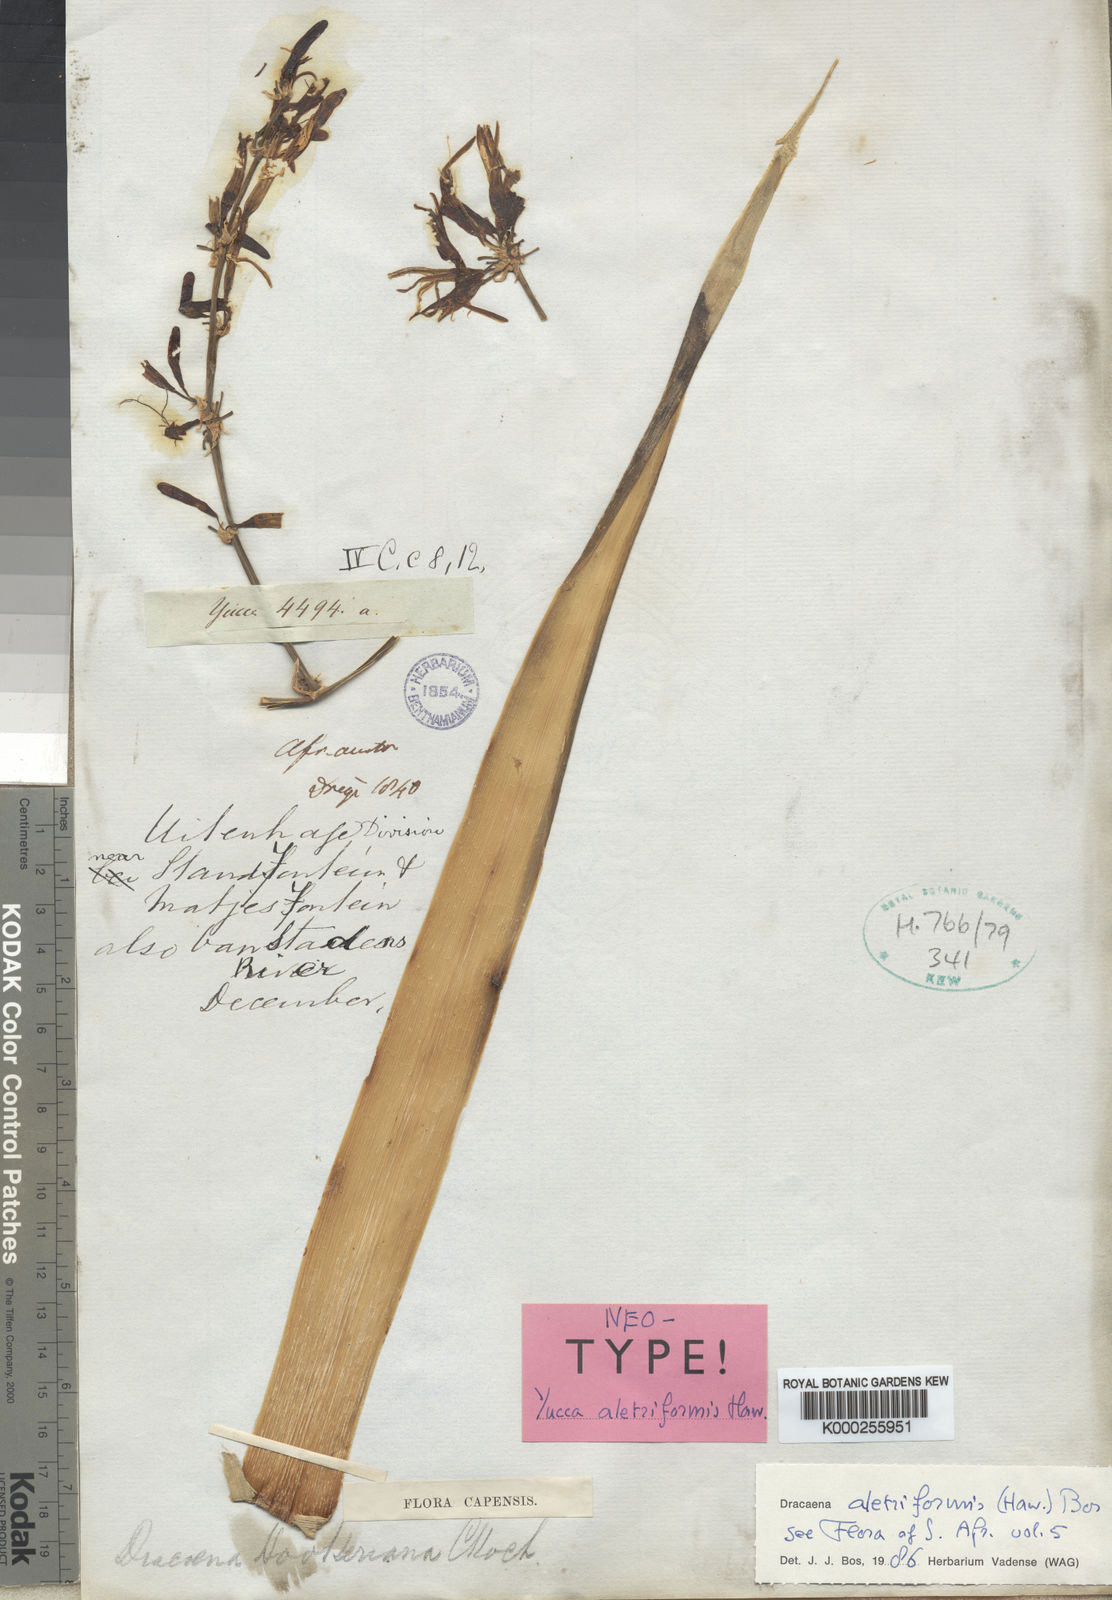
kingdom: Plantae
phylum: Tracheophyta
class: Liliopsida
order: Asparagales
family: Asparagaceae
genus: Dracaena
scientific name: Dracaena aletriformis
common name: Large-leaved dragon tree
